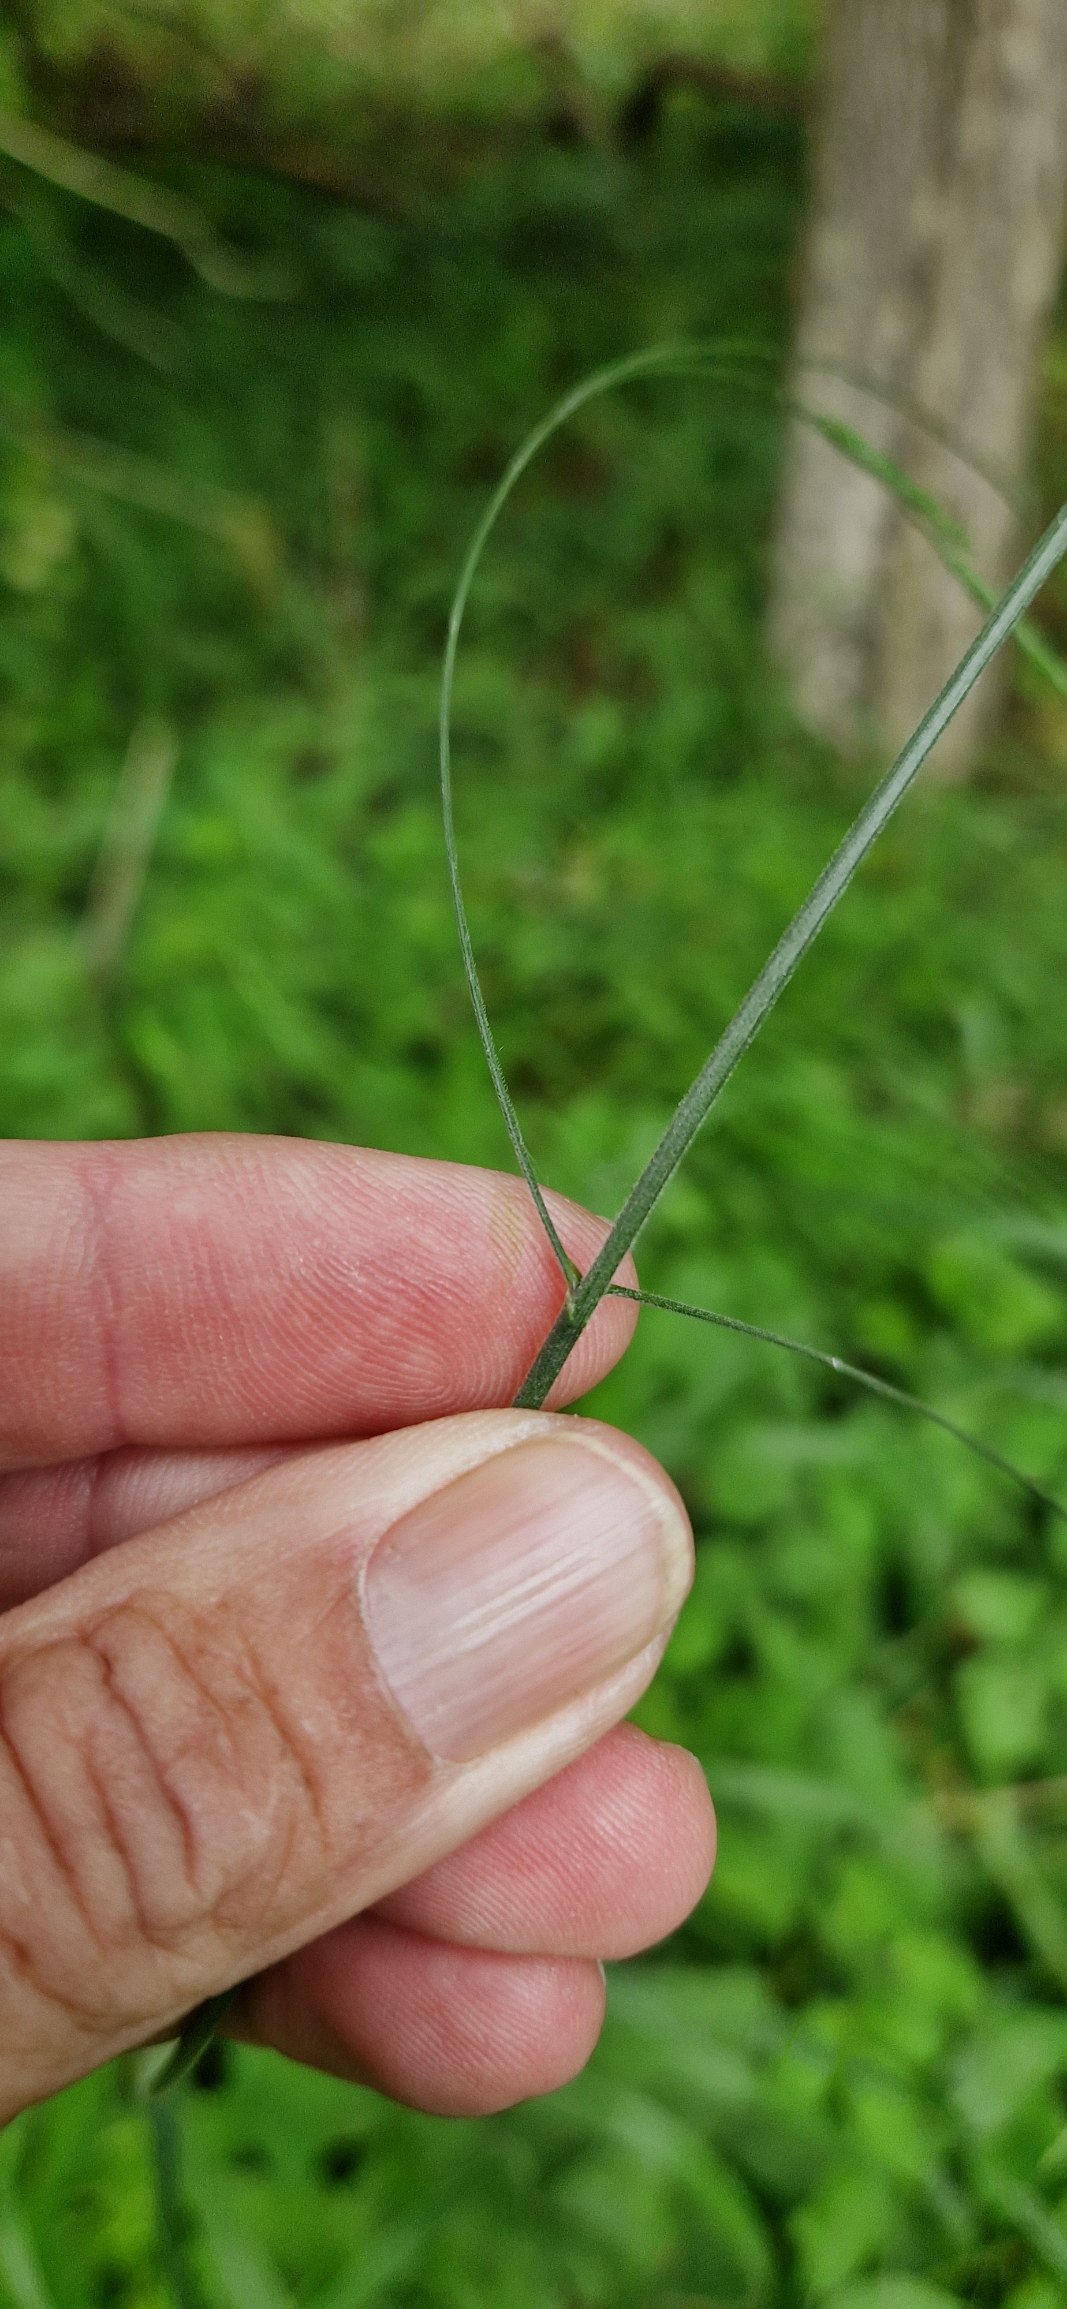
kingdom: Plantae
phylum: Tracheophyta
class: Liliopsida
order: Poales
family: Poaceae
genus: Bromus
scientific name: Bromus ramosus
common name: Sildig skov-hejre
